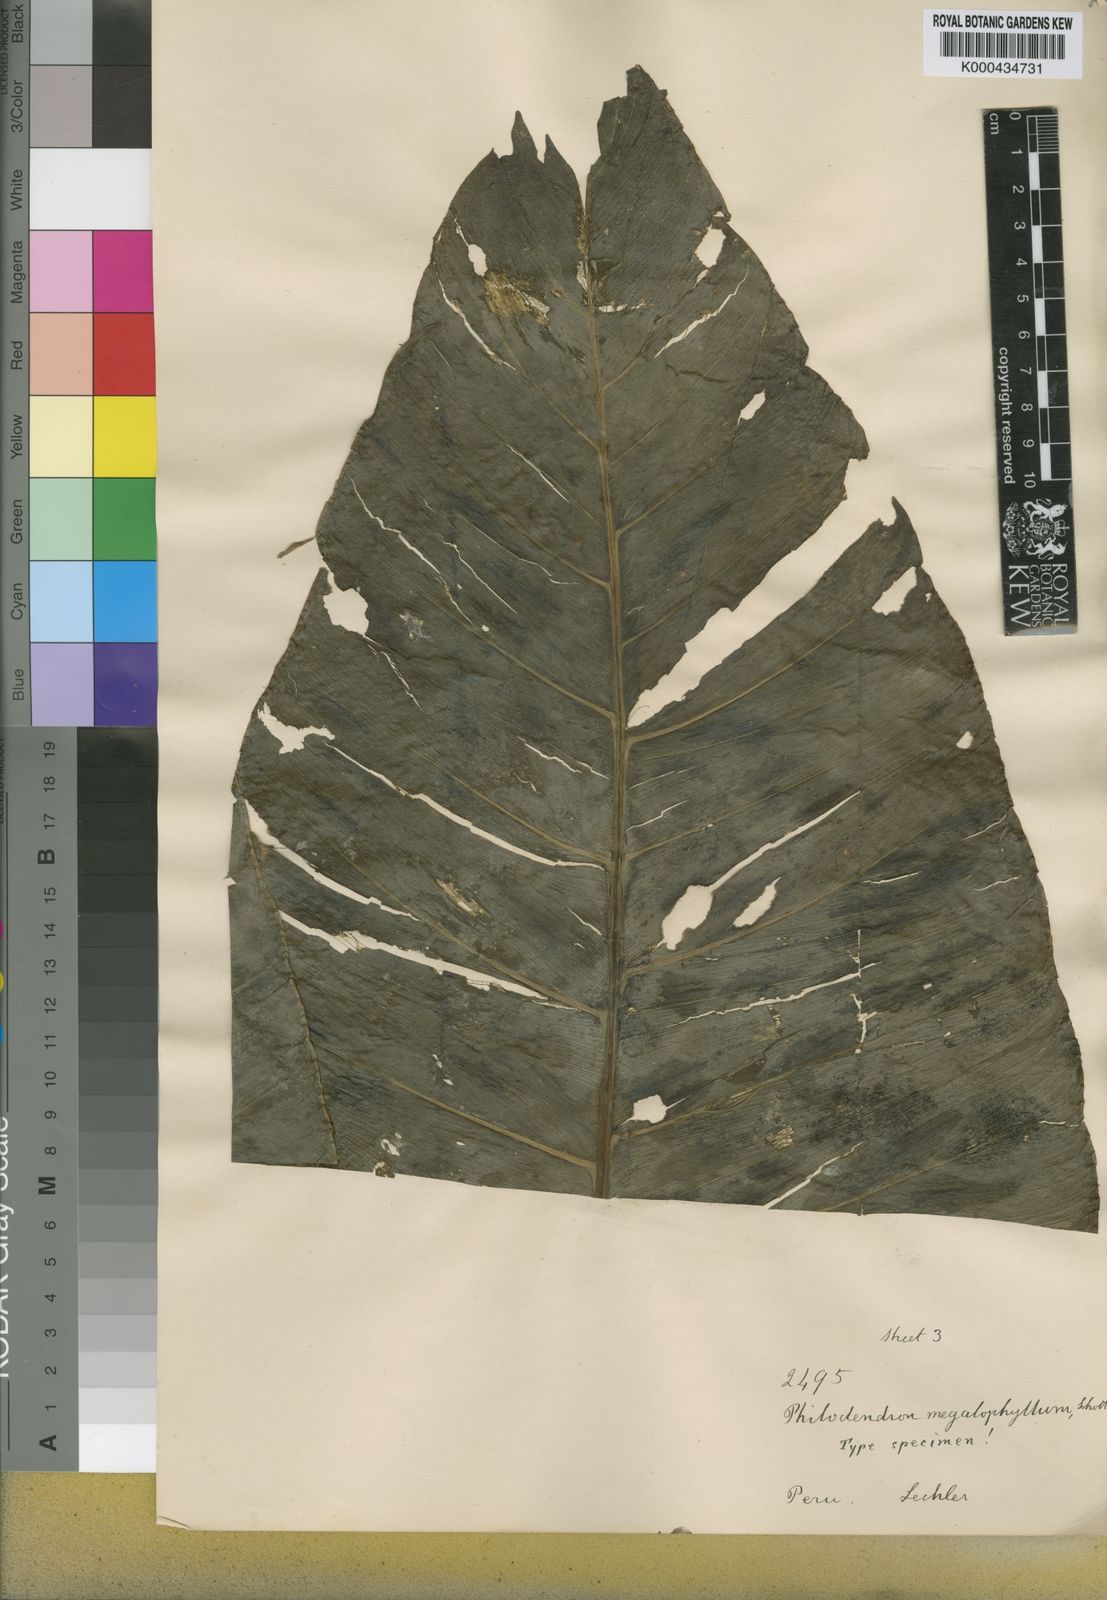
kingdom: Plantae
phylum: Tracheophyta
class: Liliopsida
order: Alismatales
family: Araceae
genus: Philodendron
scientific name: Philodendron deflexum
